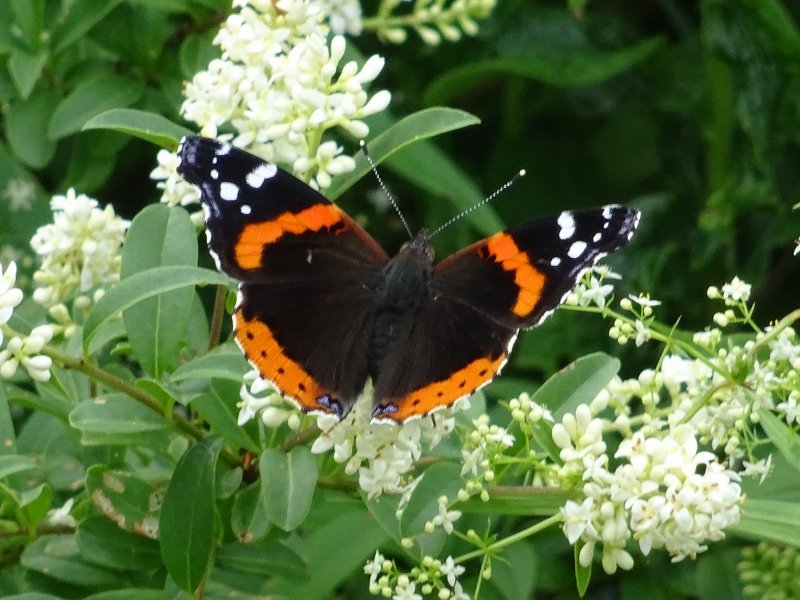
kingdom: Animalia
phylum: Arthropoda
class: Insecta
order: Lepidoptera
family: Nymphalidae
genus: Vanessa
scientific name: Vanessa atalanta
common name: Red Admiral
